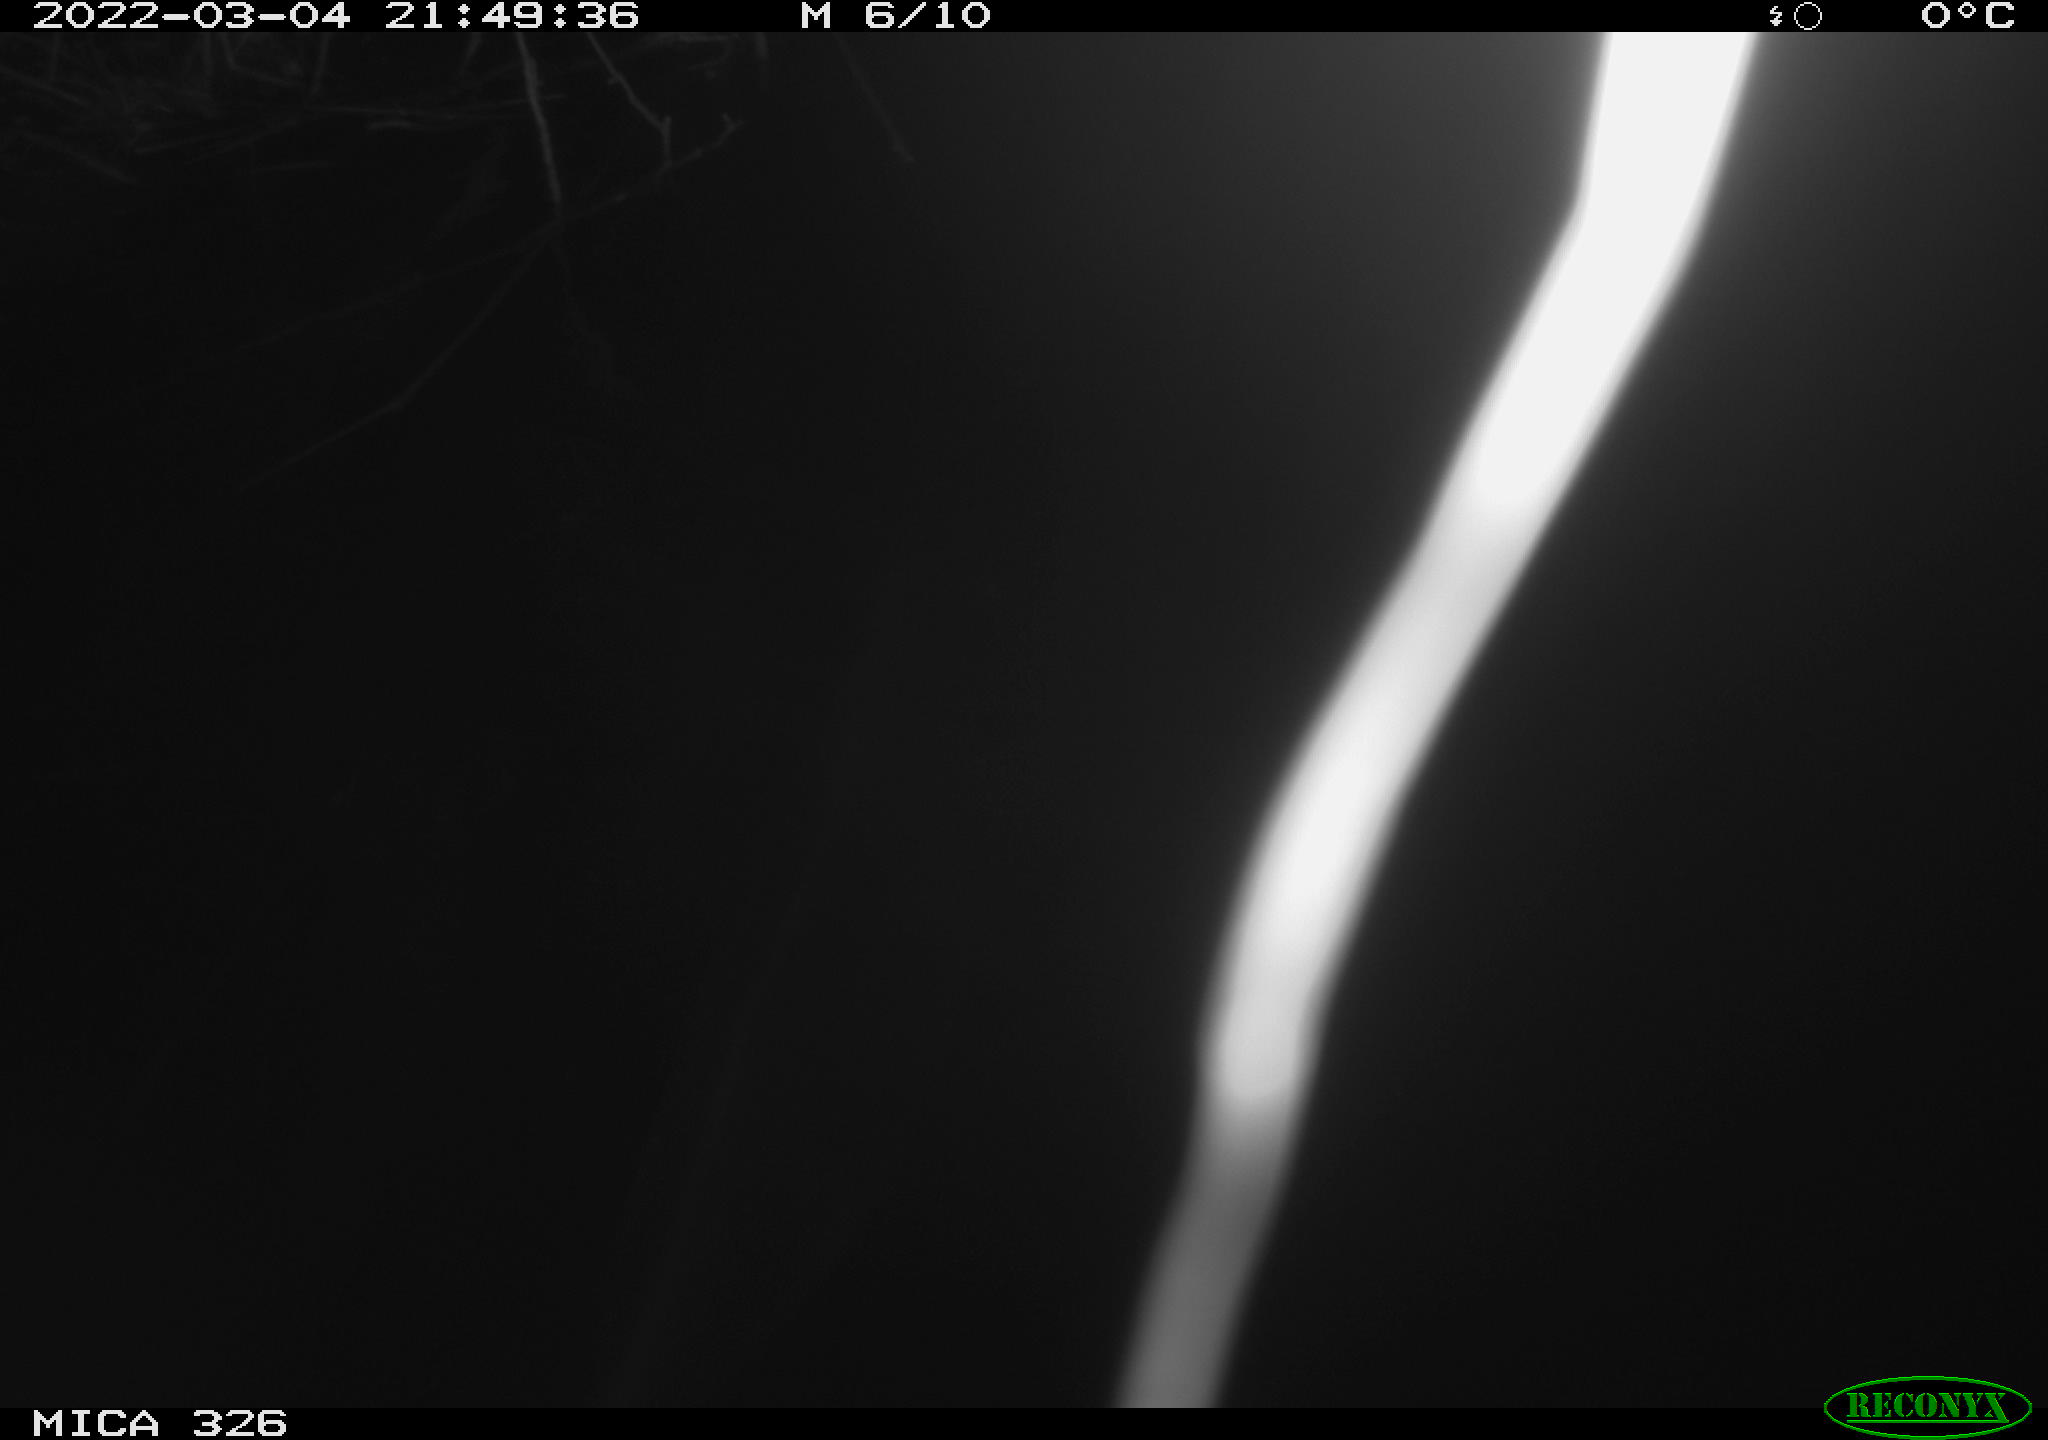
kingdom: Animalia
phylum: Chordata
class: Mammalia
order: Rodentia
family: Cricetidae
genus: Ondatra
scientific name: Ondatra zibethicus
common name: Muskrat
